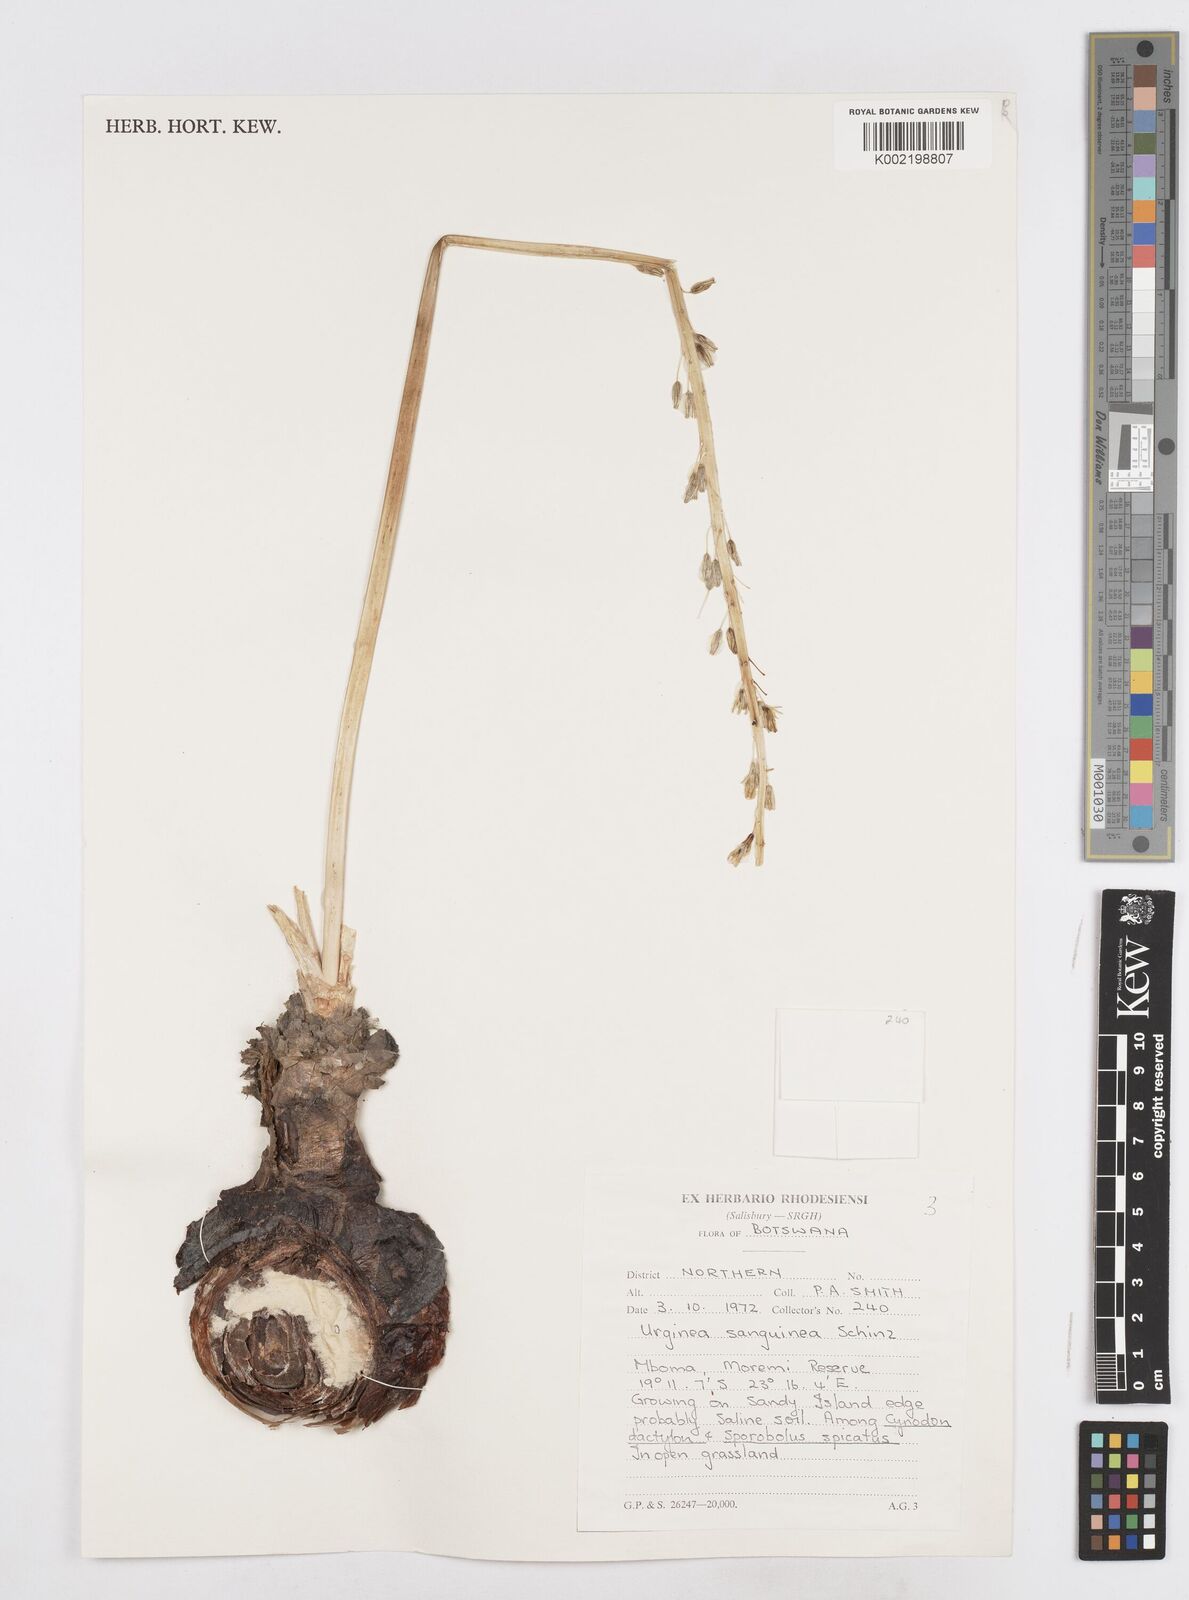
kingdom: Plantae
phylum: Tracheophyta
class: Liliopsida
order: Asparagales
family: Asparagaceae
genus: Drimia
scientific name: Drimia sanguinea
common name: Transvaal slangkop
